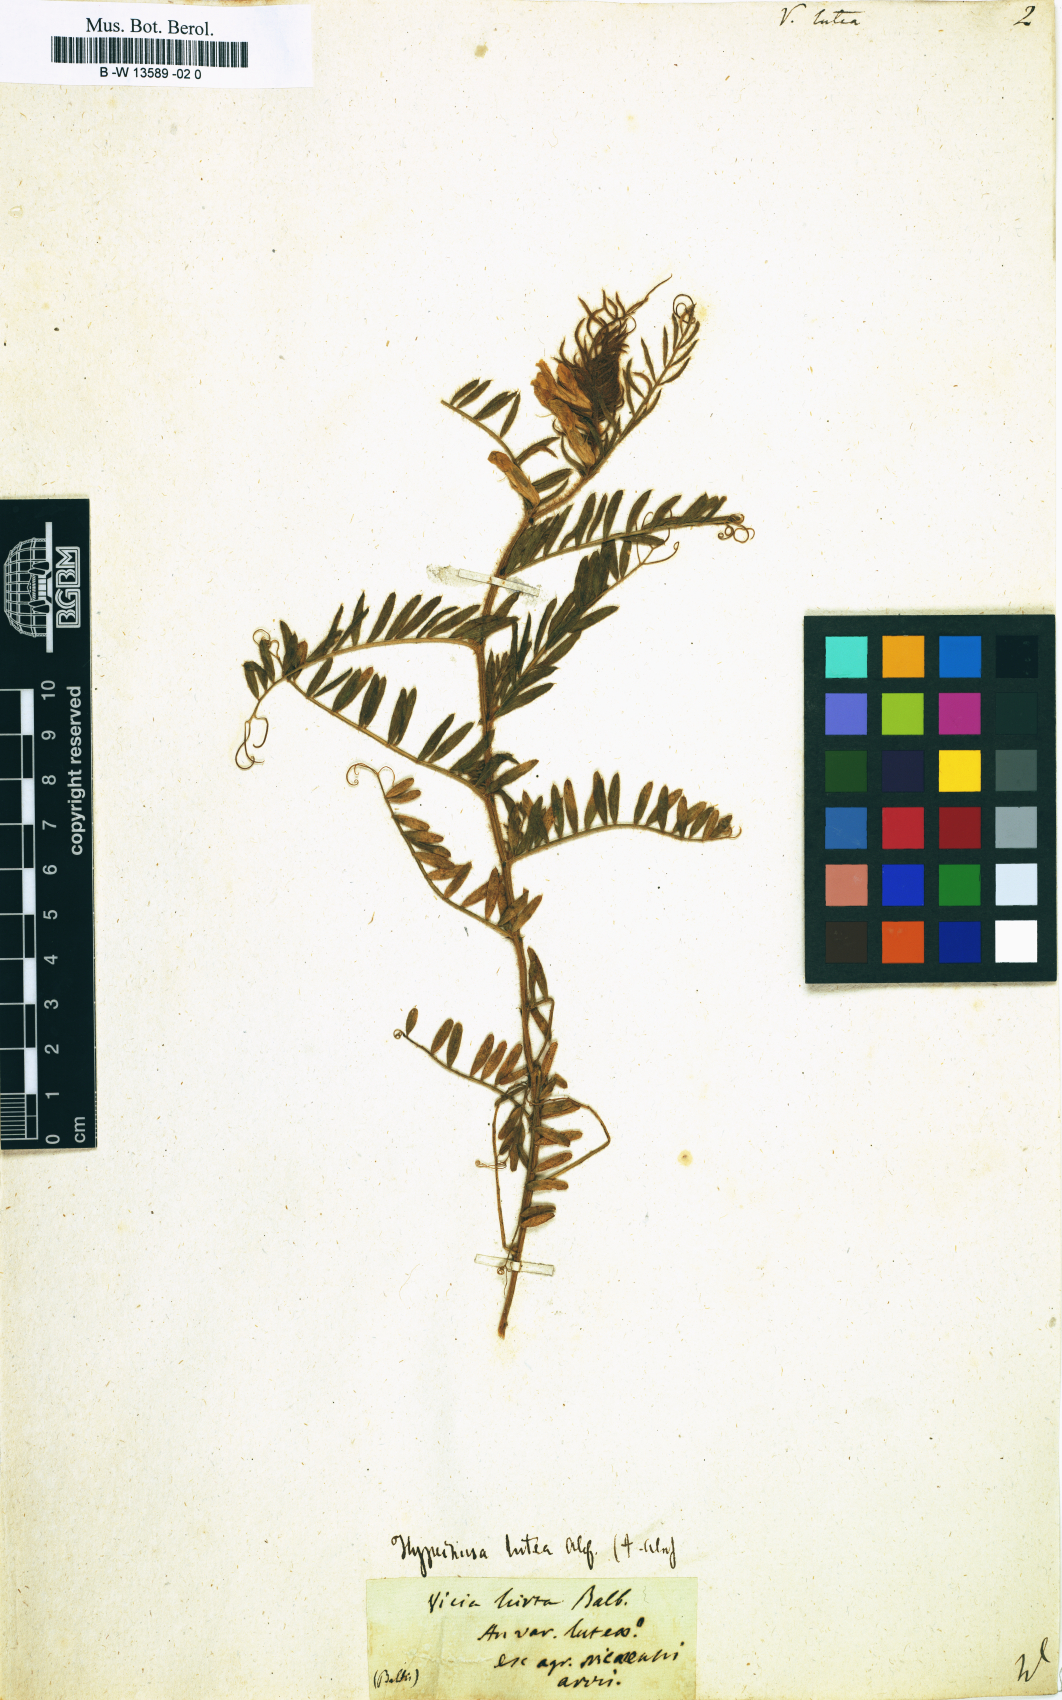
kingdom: Plantae
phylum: Tracheophyta
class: Magnoliopsida
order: Fabales
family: Fabaceae
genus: Vicia
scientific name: Vicia lutea
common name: Smooth yellow vetch
